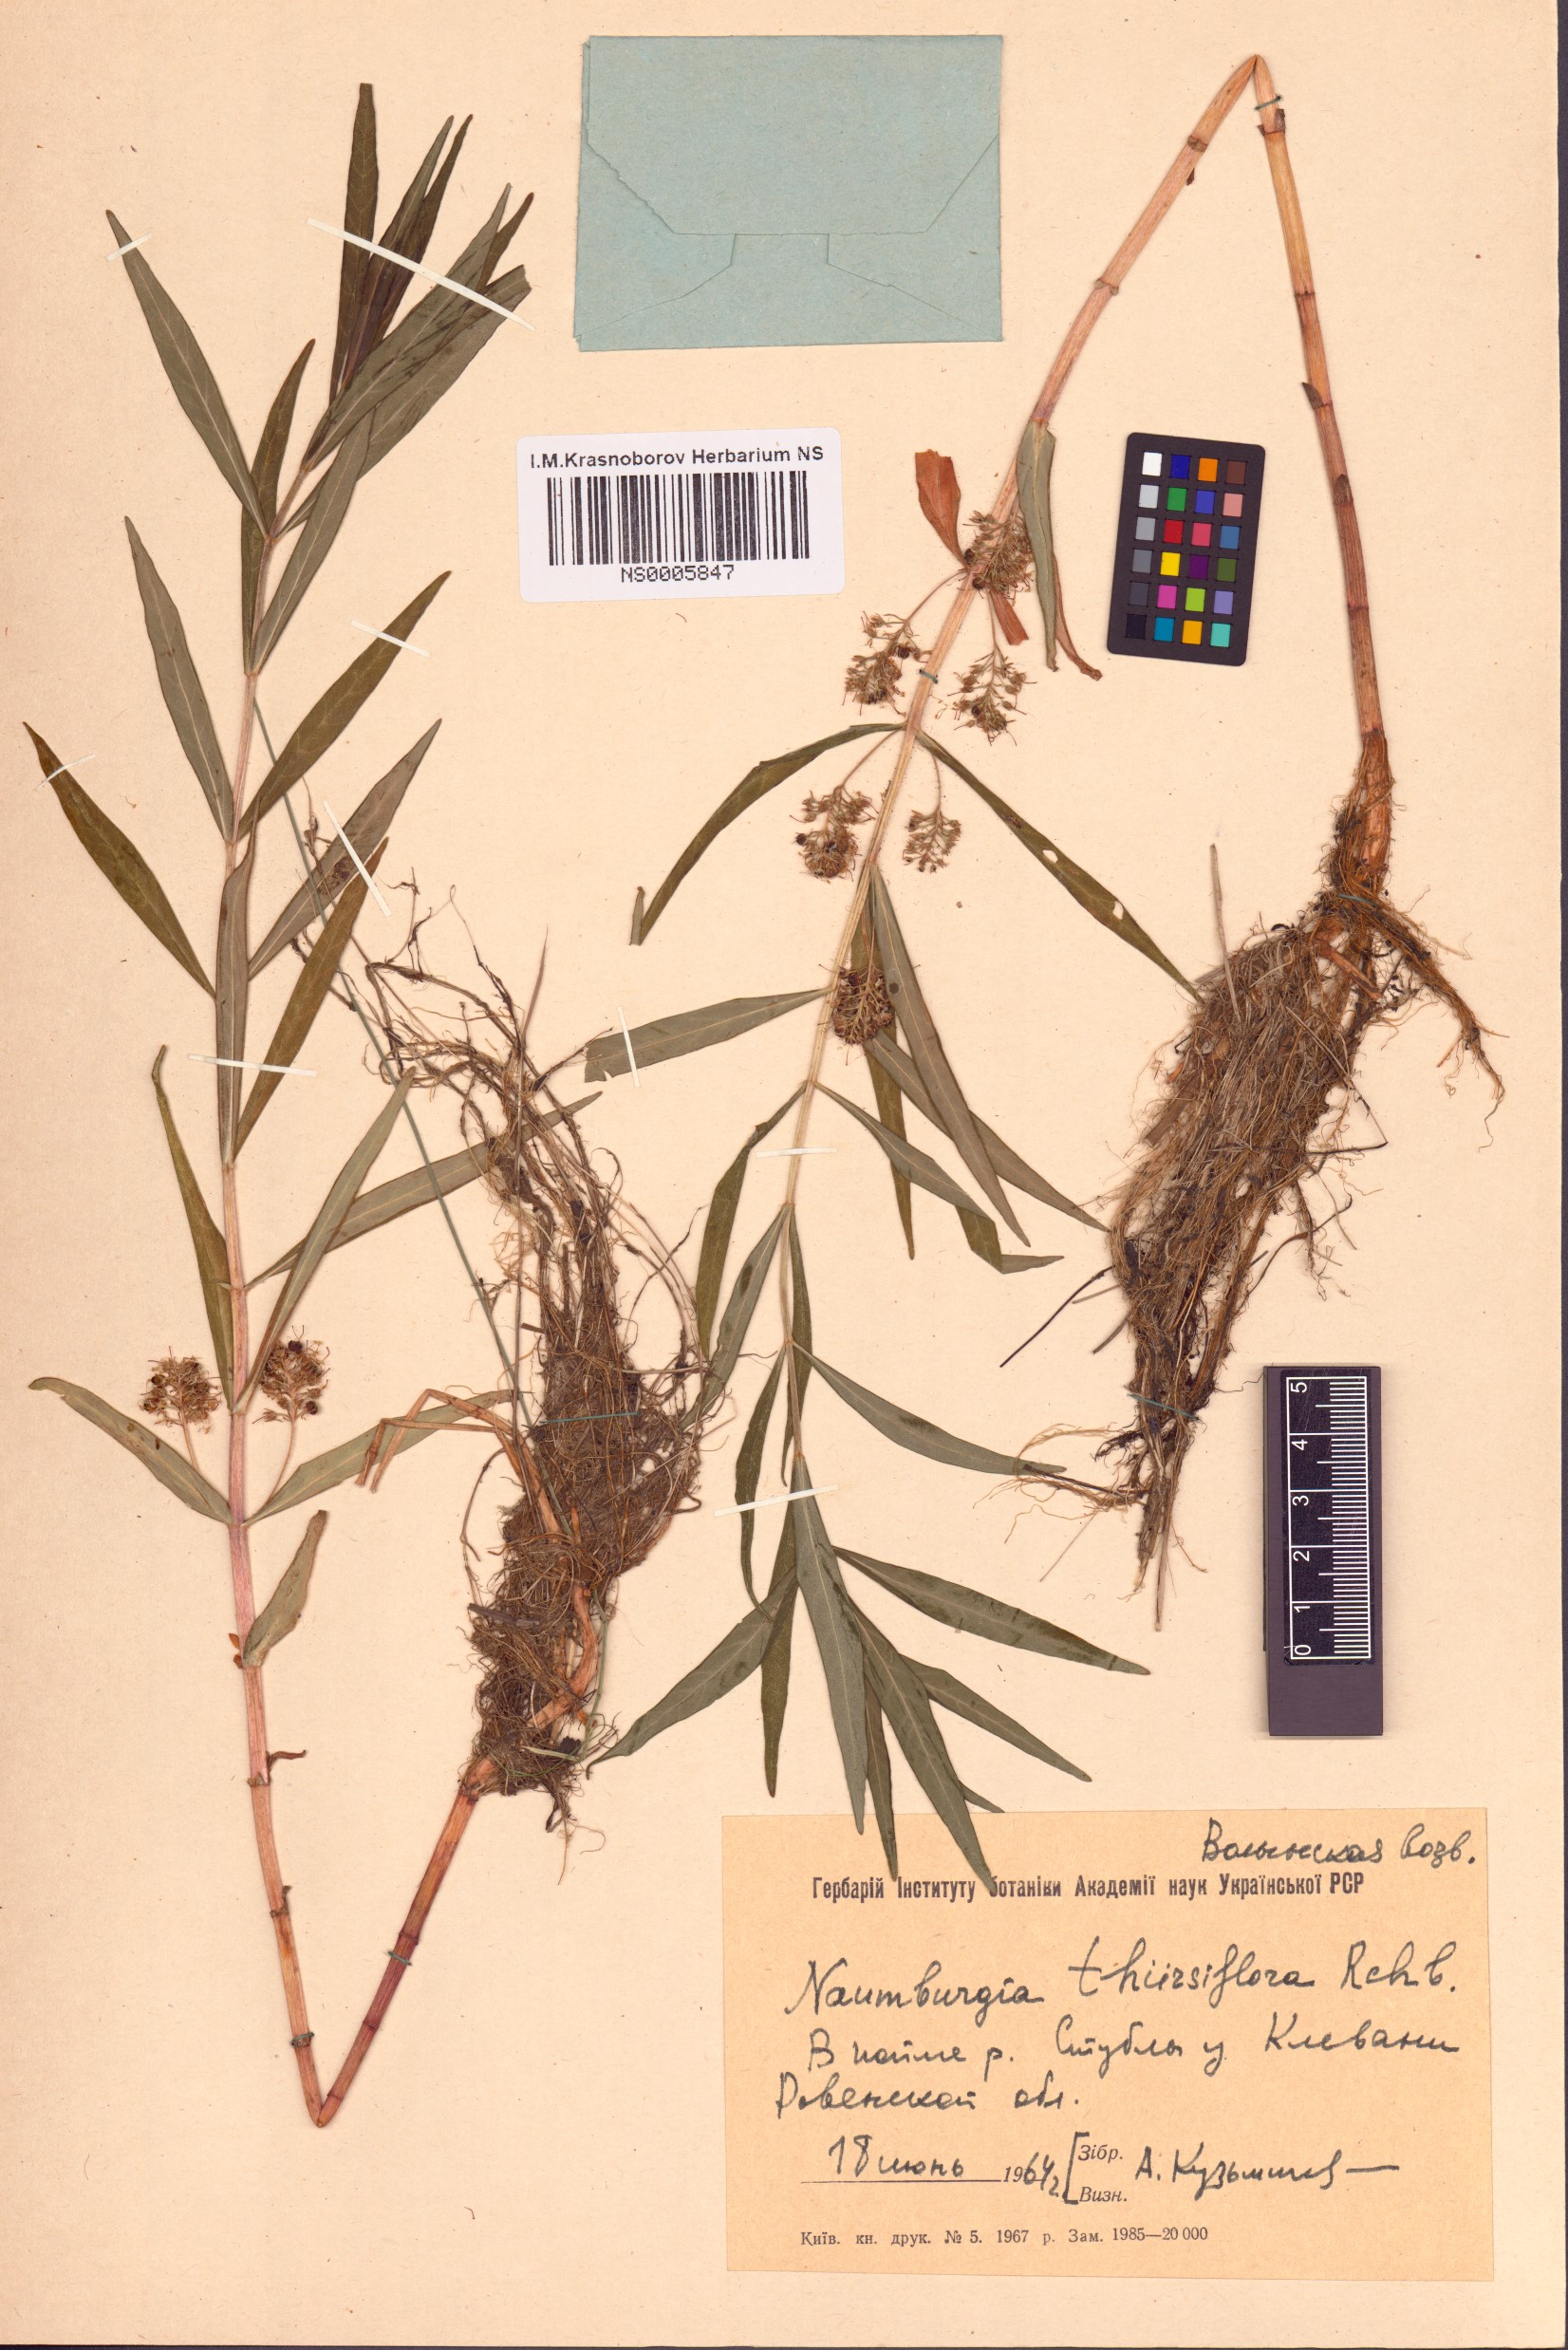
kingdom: Plantae
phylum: Tracheophyta
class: Magnoliopsida
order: Ericales
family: Primulaceae
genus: Lysimachia
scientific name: Lysimachia thyrsiflora
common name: Tufted loosestrife
